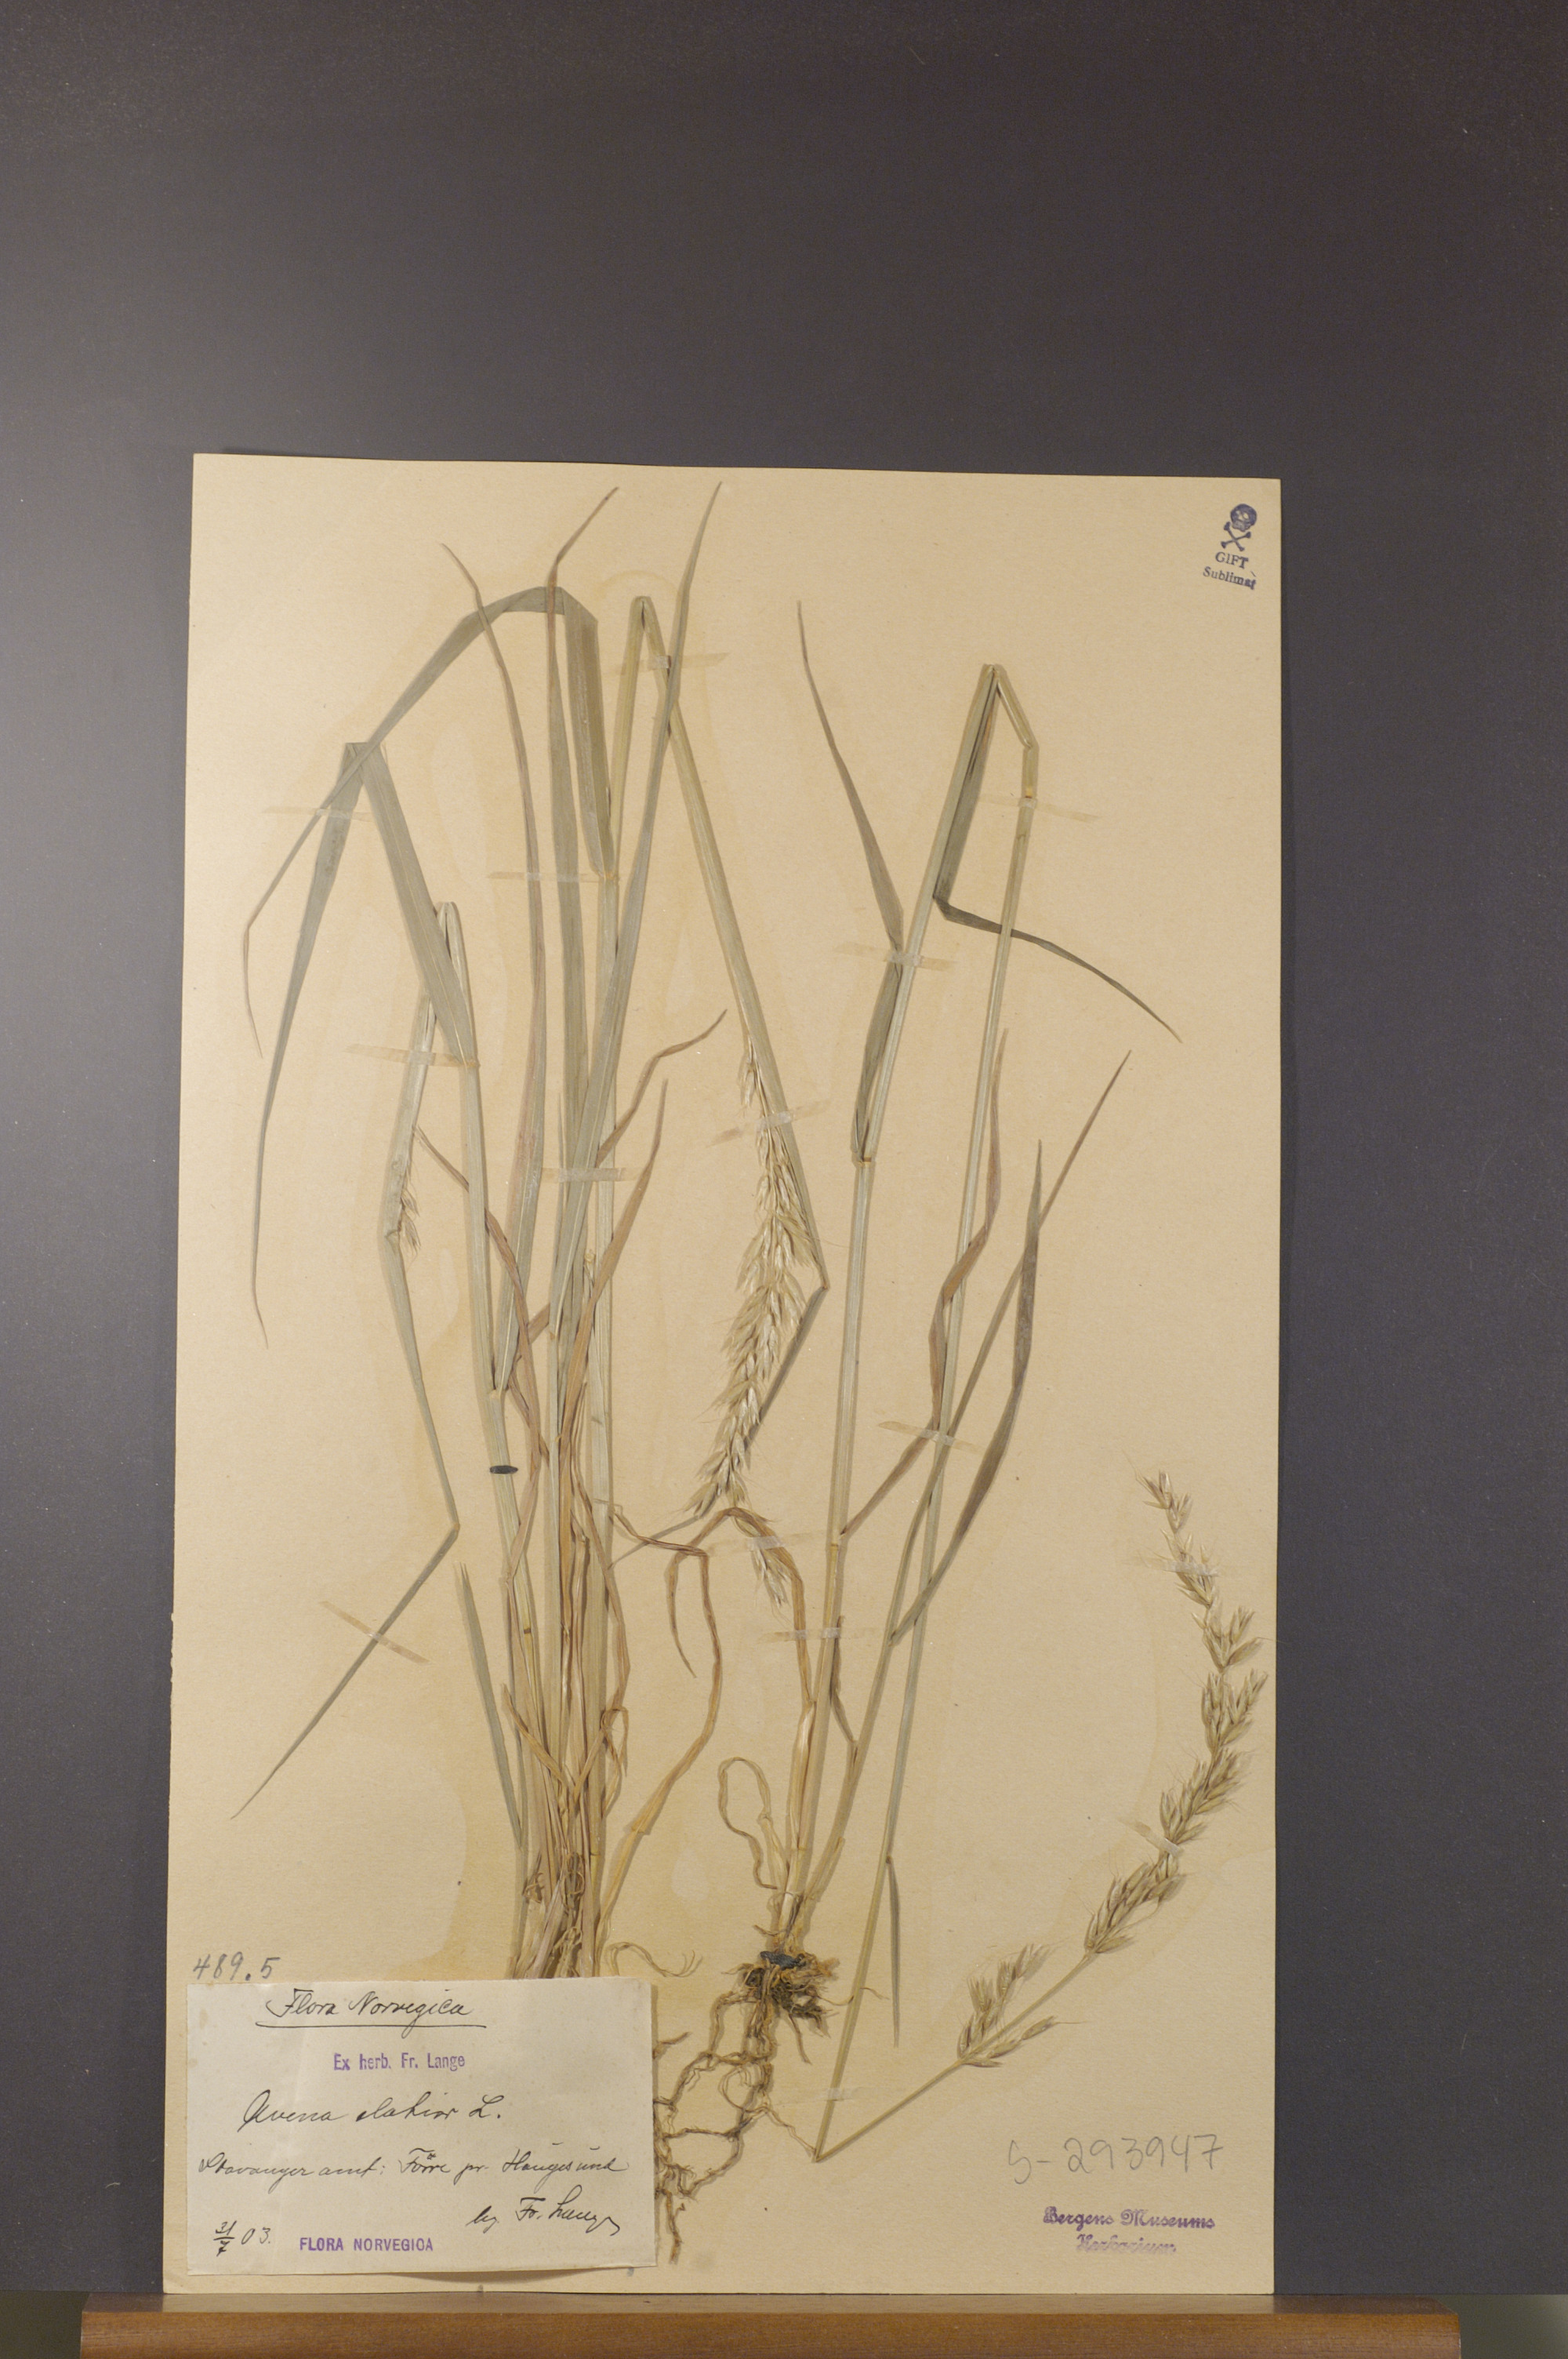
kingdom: Plantae
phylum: Tracheophyta
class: Liliopsida
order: Poales
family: Poaceae
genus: Arrhenatherum
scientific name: Arrhenatherum elatius
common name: Tall oatgrass
